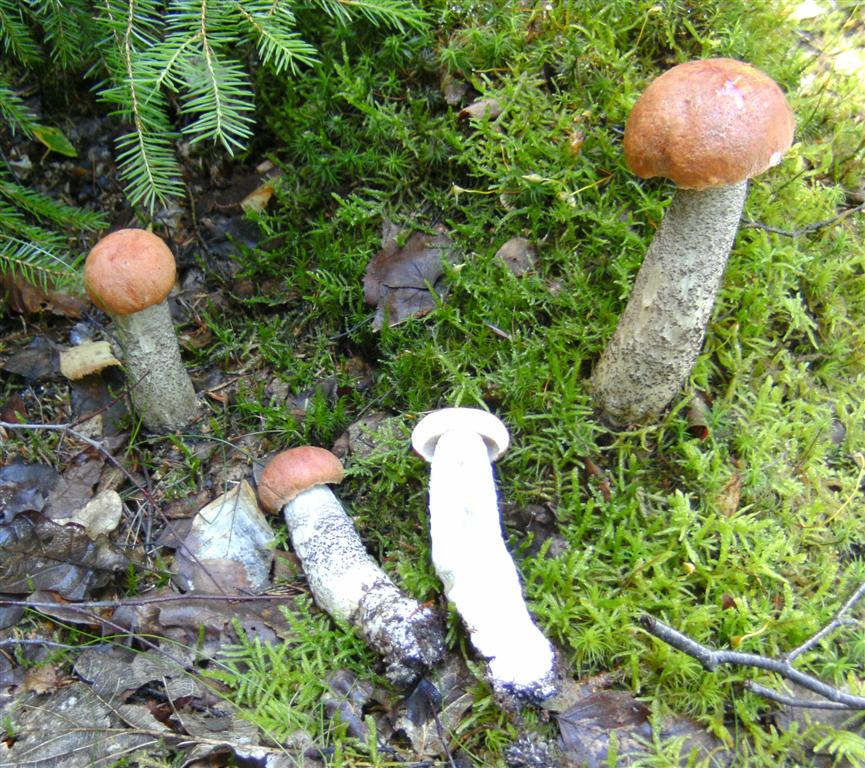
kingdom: Fungi
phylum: Basidiomycota
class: Agaricomycetes
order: Boletales
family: Boletaceae
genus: Leccinum
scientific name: Leccinum versipelle
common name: orange skælrørhat
